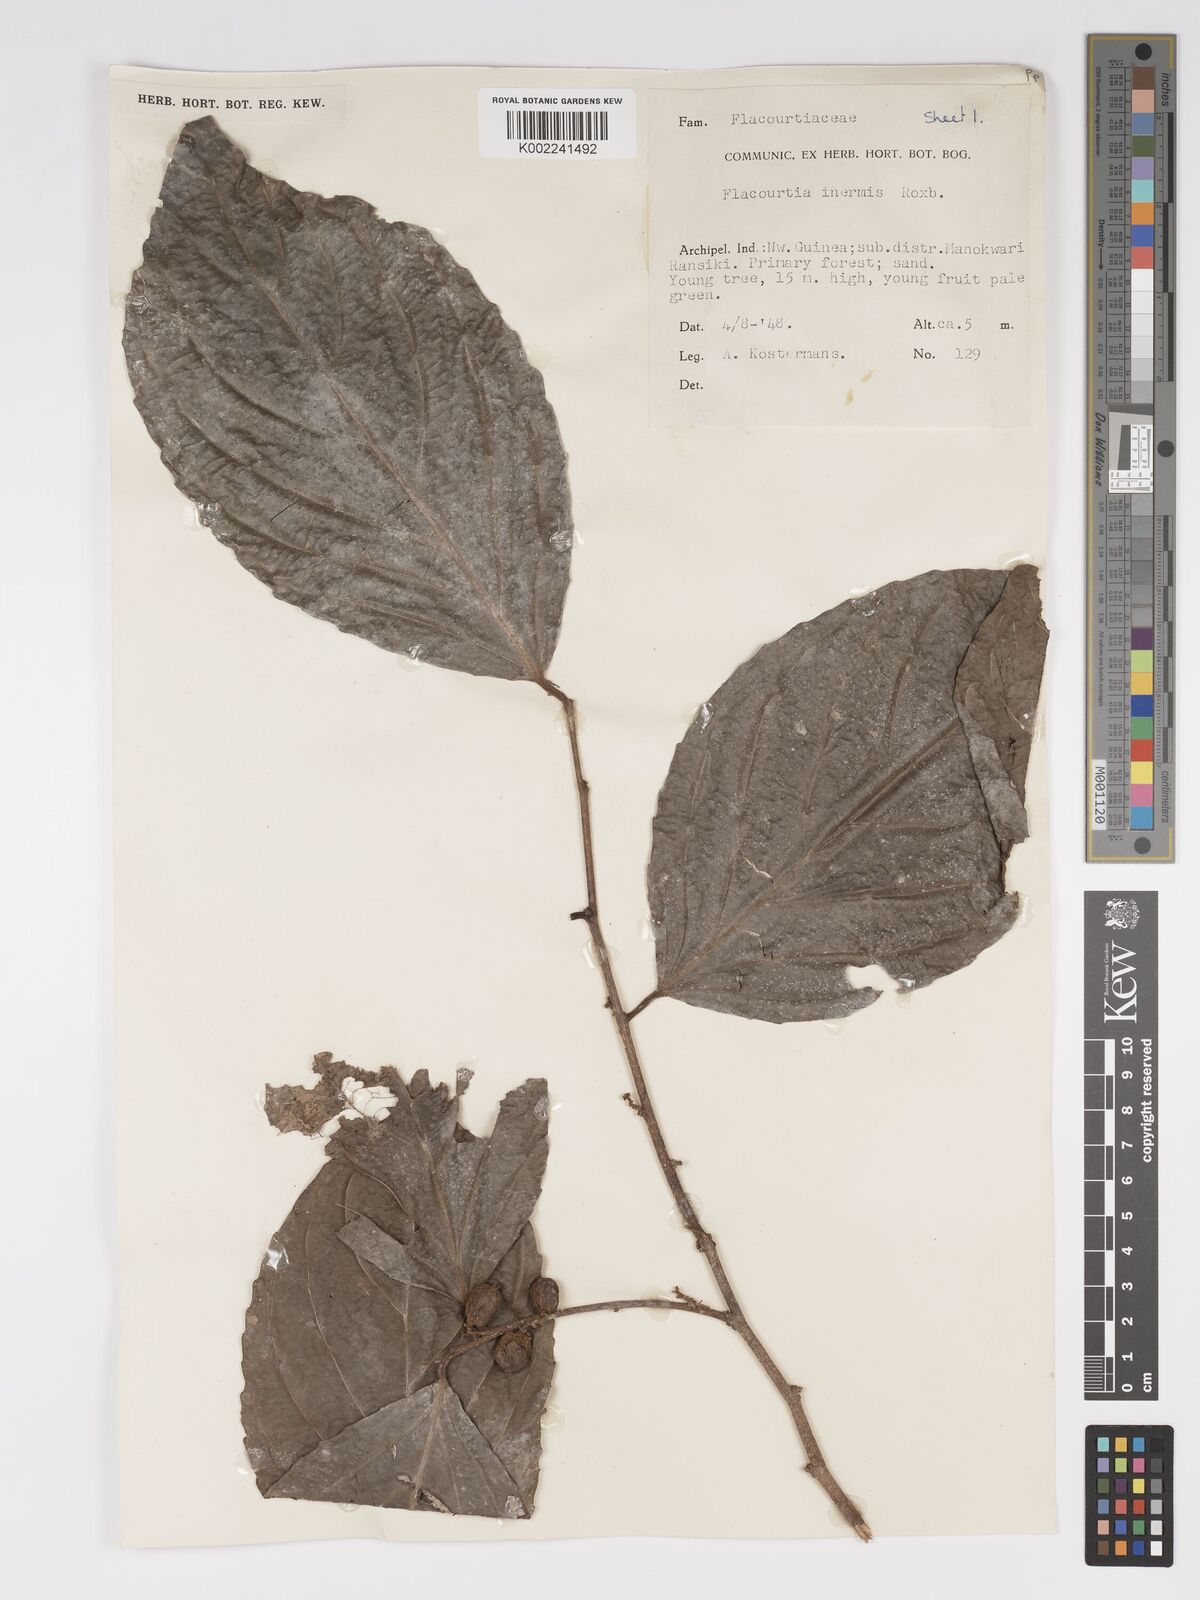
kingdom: Plantae
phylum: Tracheophyta
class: Magnoliopsida
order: Malpighiales
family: Salicaceae
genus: Flacourtia
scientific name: Flacourtia inermis
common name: Plum-of-martinique
